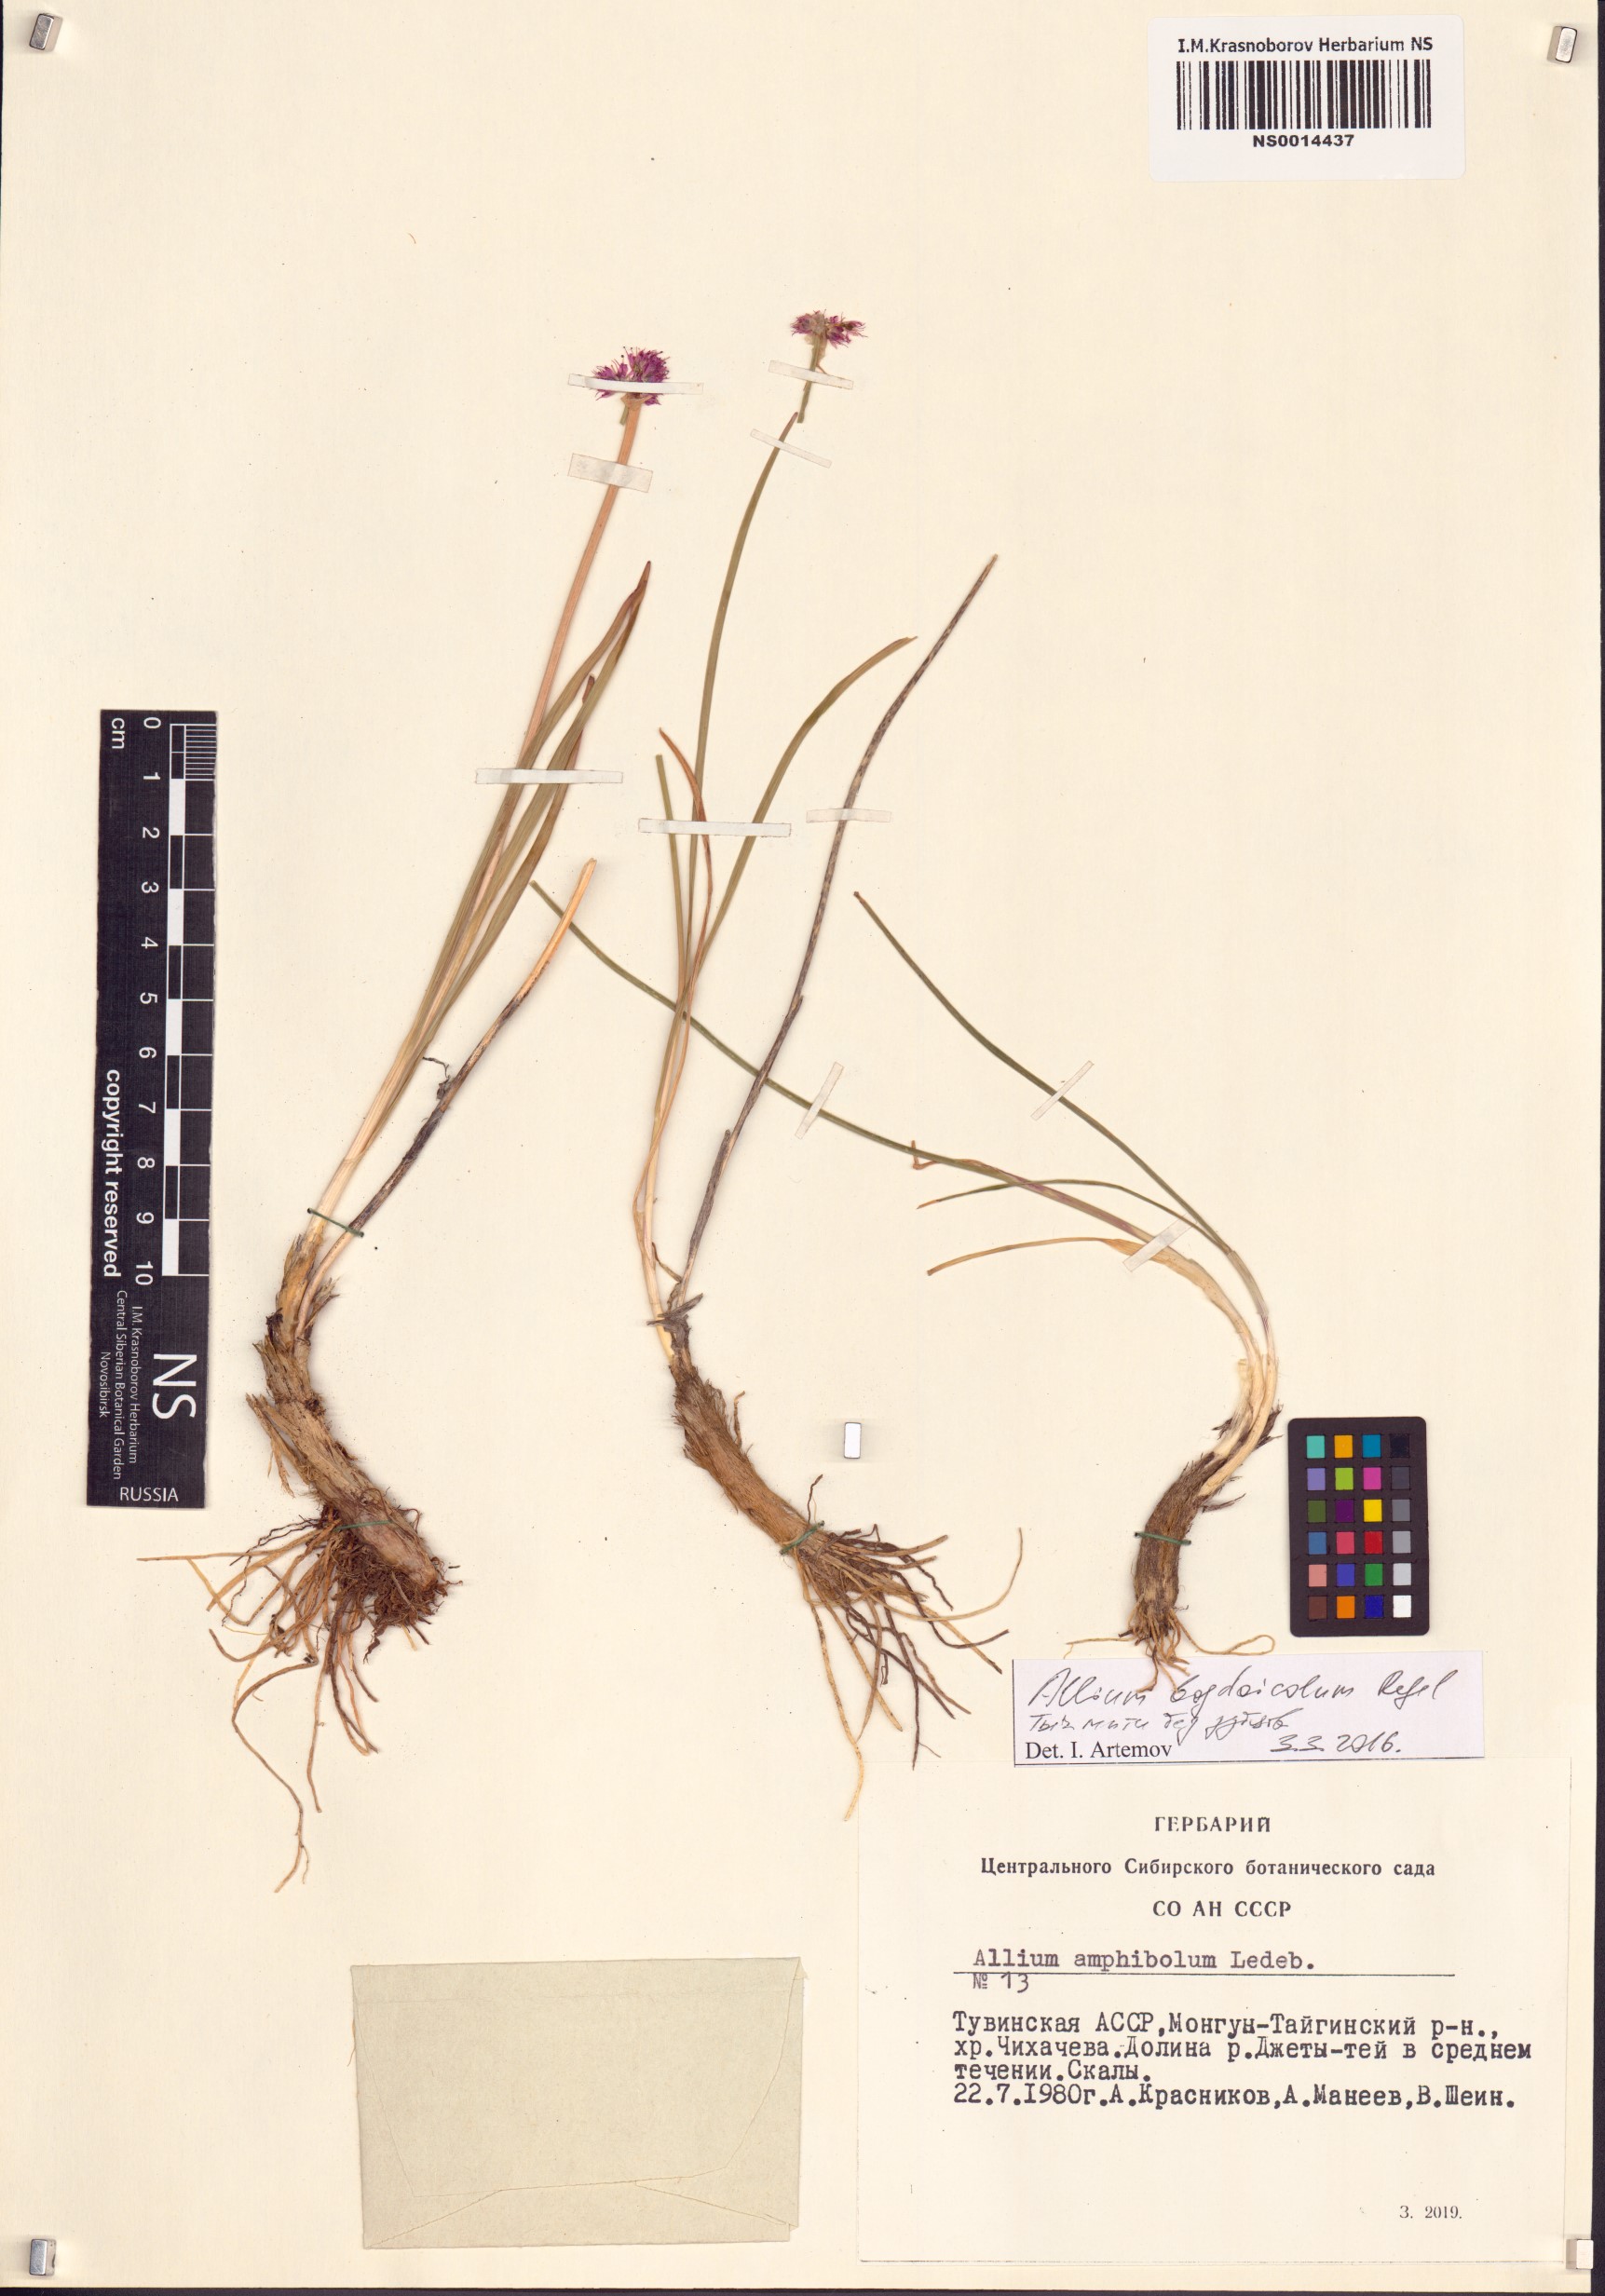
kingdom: Plantae
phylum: Tracheophyta
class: Liliopsida
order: Asparagales
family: Amaryllidaceae
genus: Allium
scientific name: Allium schrenkii
